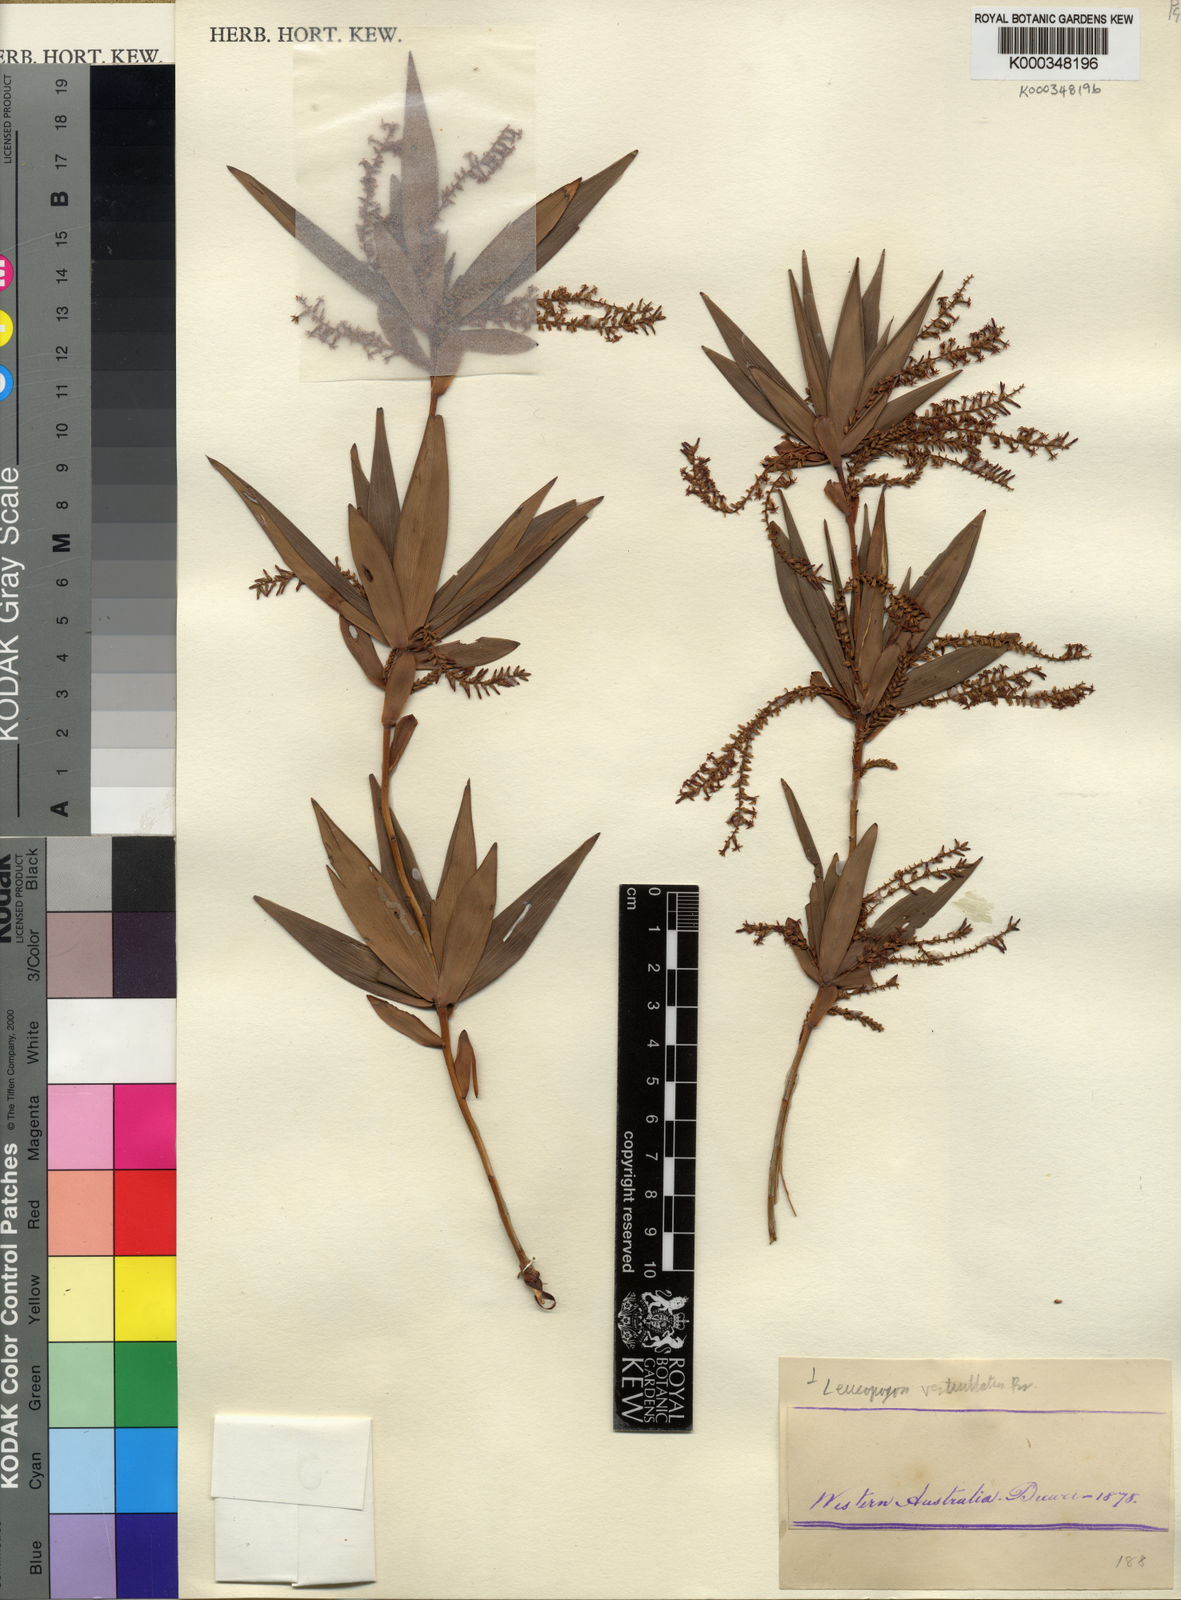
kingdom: Plantae
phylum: Tracheophyta
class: Magnoliopsida
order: Ericales
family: Ericaceae
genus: Leucopogon
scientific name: Leucopogon verticillatus
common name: Tasselshrub
